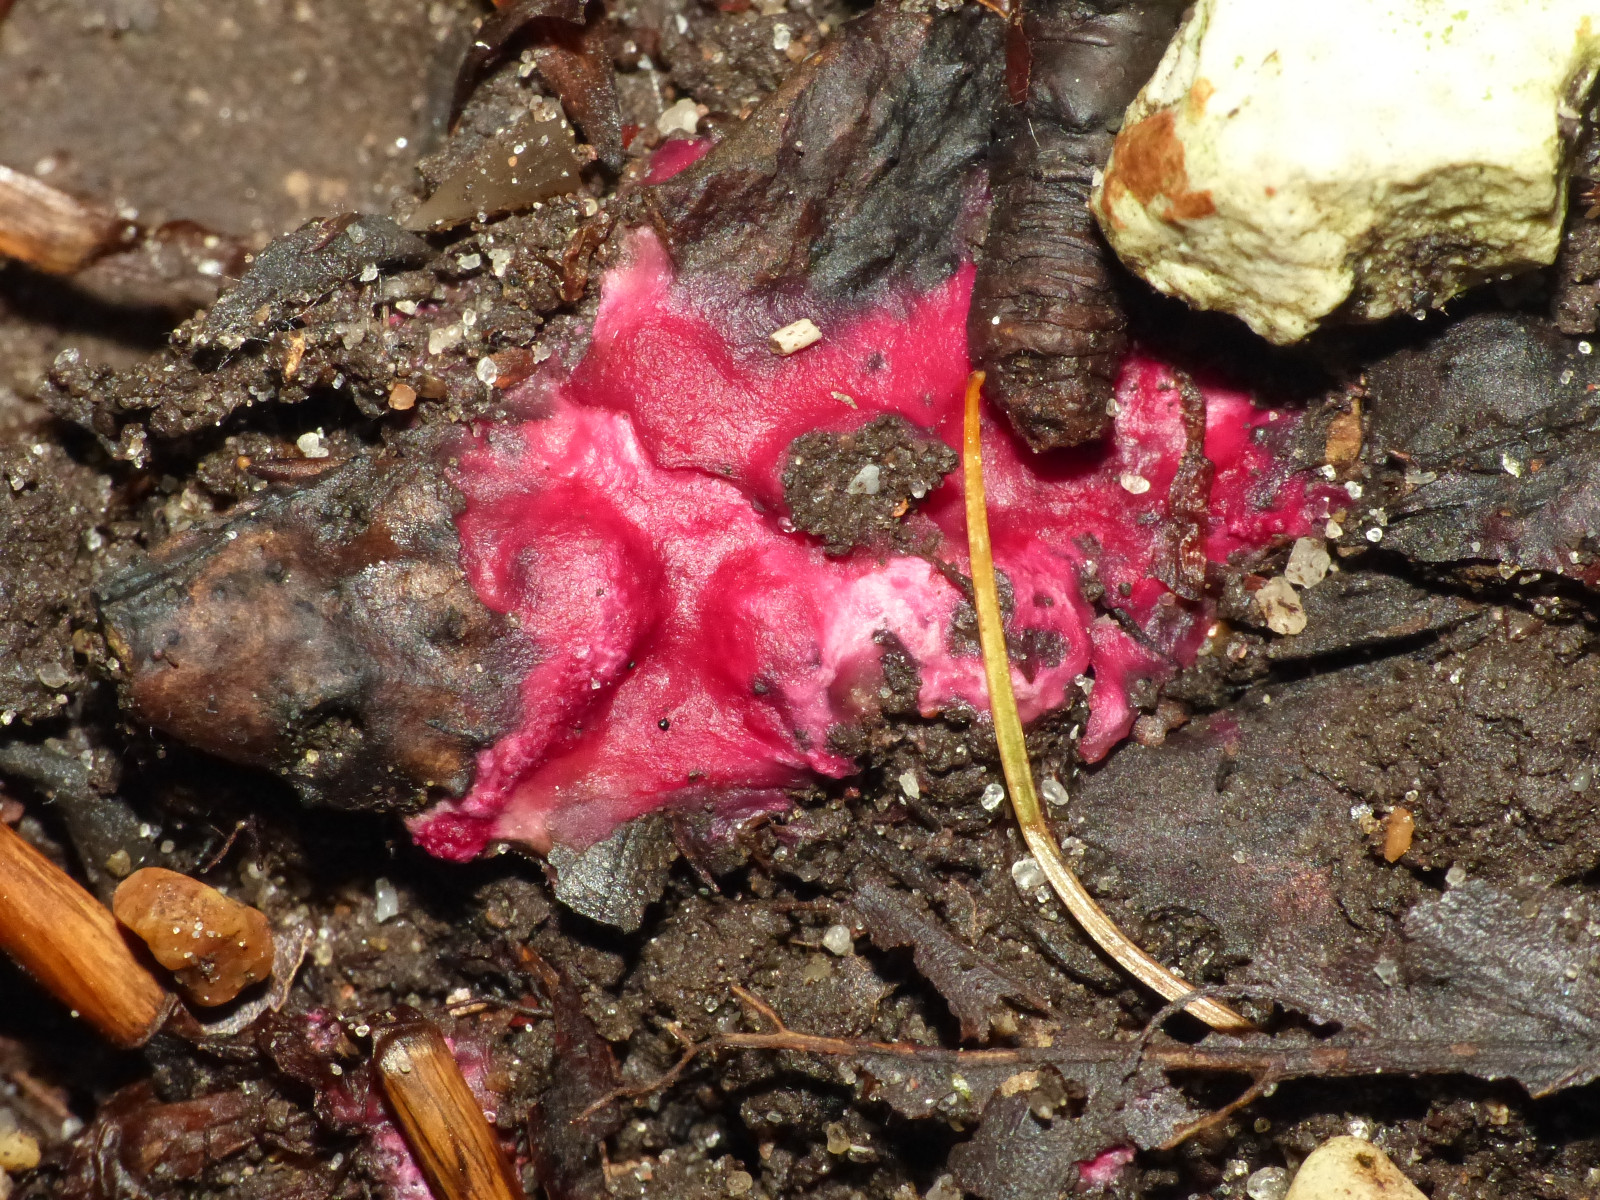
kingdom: Fungi
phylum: Ascomycota
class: Sordariomycetes
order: Hypocreales
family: Hypocreaceae
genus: Hypomyces
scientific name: Hypomyces rosellus
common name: rosa snylteskorpe
